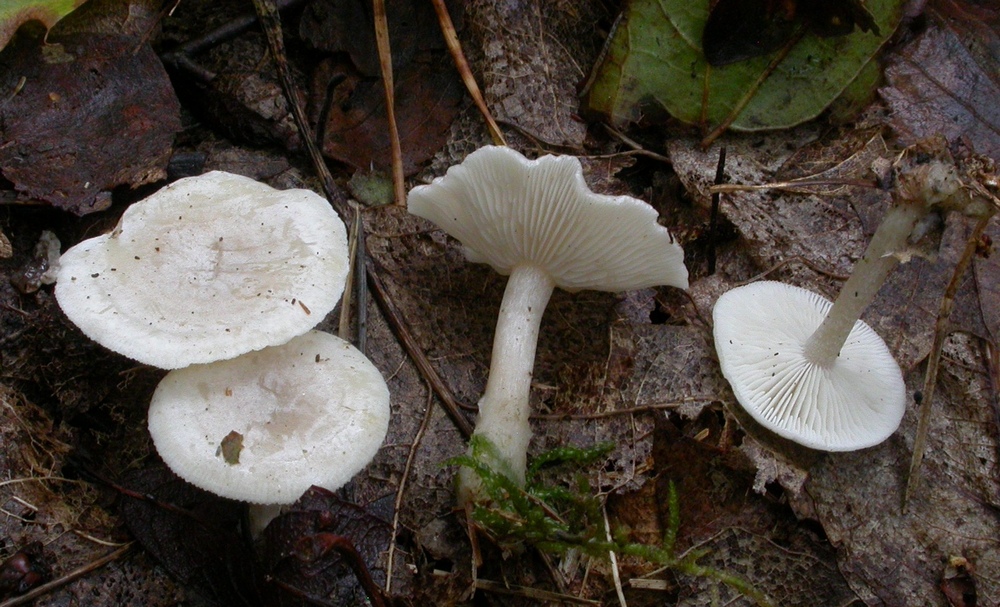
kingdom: Fungi
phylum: Basidiomycota
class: Agaricomycetes
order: Agaricales
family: Tricholomataceae
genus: Leucocybe
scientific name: Leucocybe candicans
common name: kridt-tragthat
